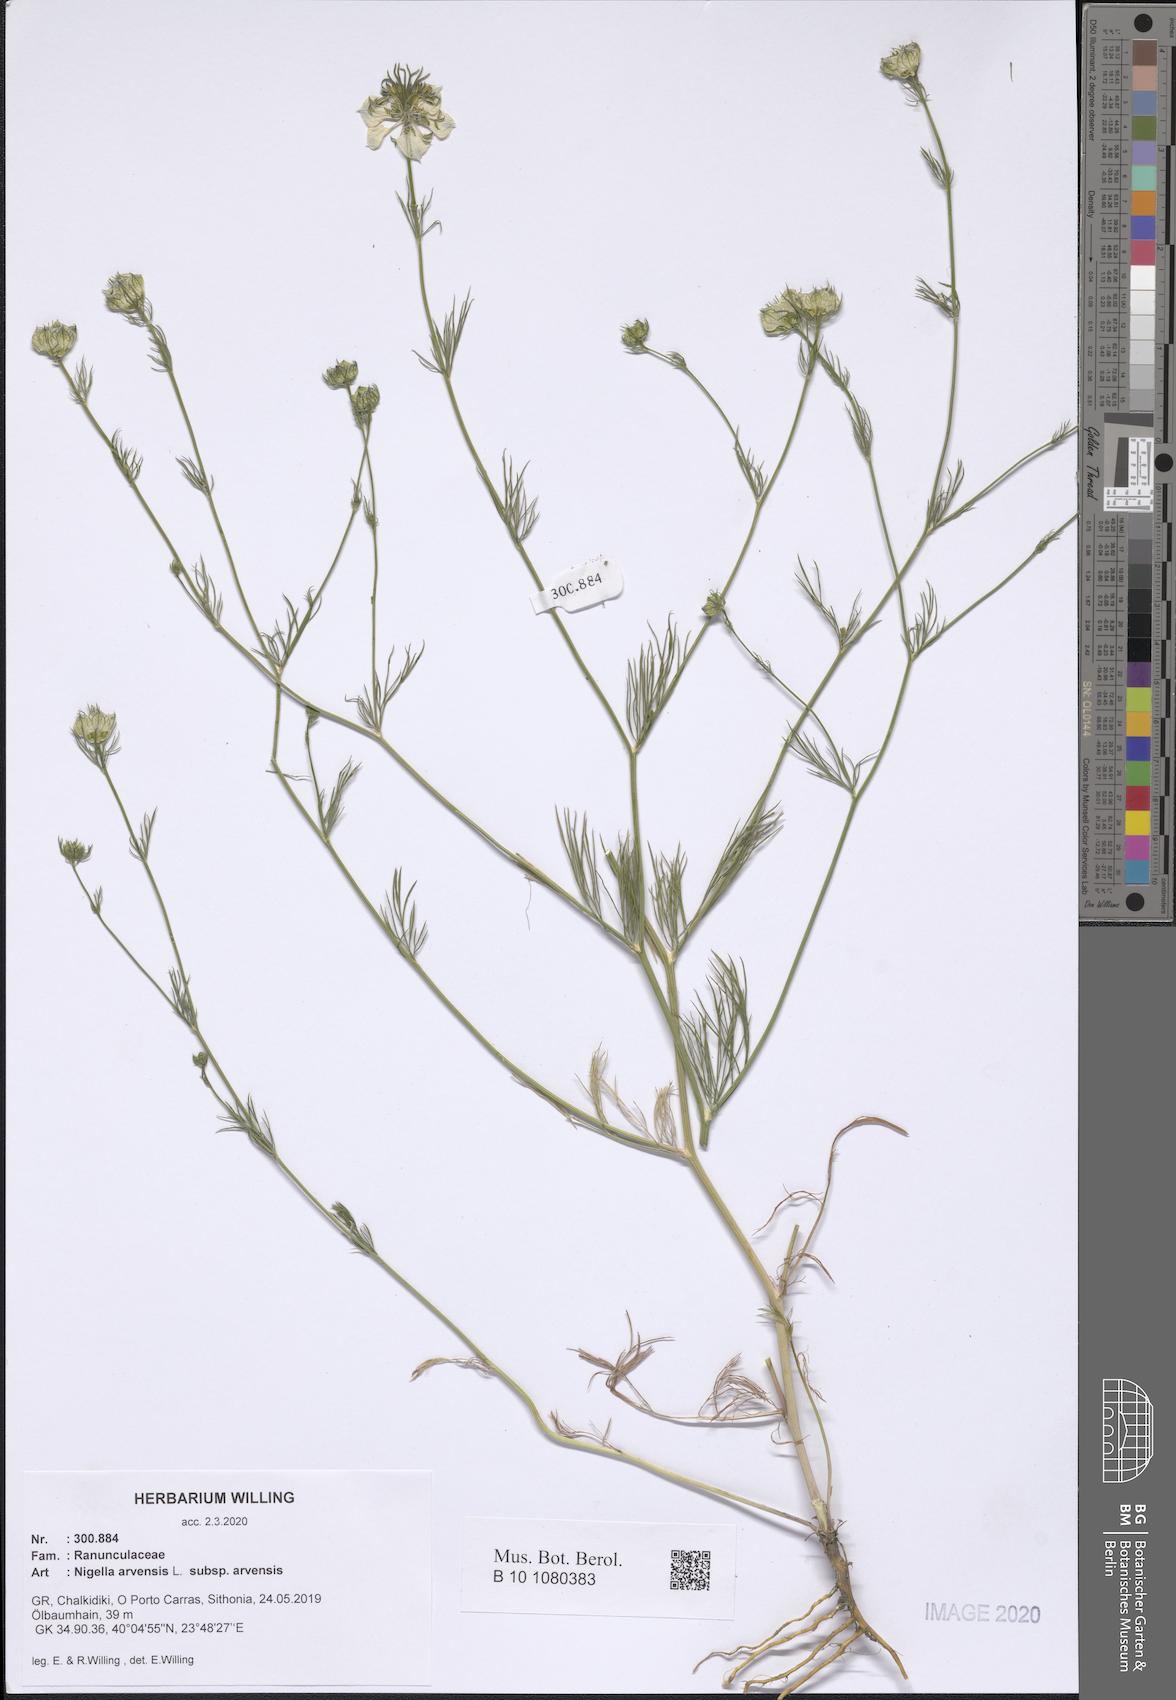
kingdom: Plantae
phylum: Tracheophyta
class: Magnoliopsida
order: Ranunculales
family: Ranunculaceae
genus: Nigella
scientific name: Nigella arvensis
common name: Wild fennel-flower
